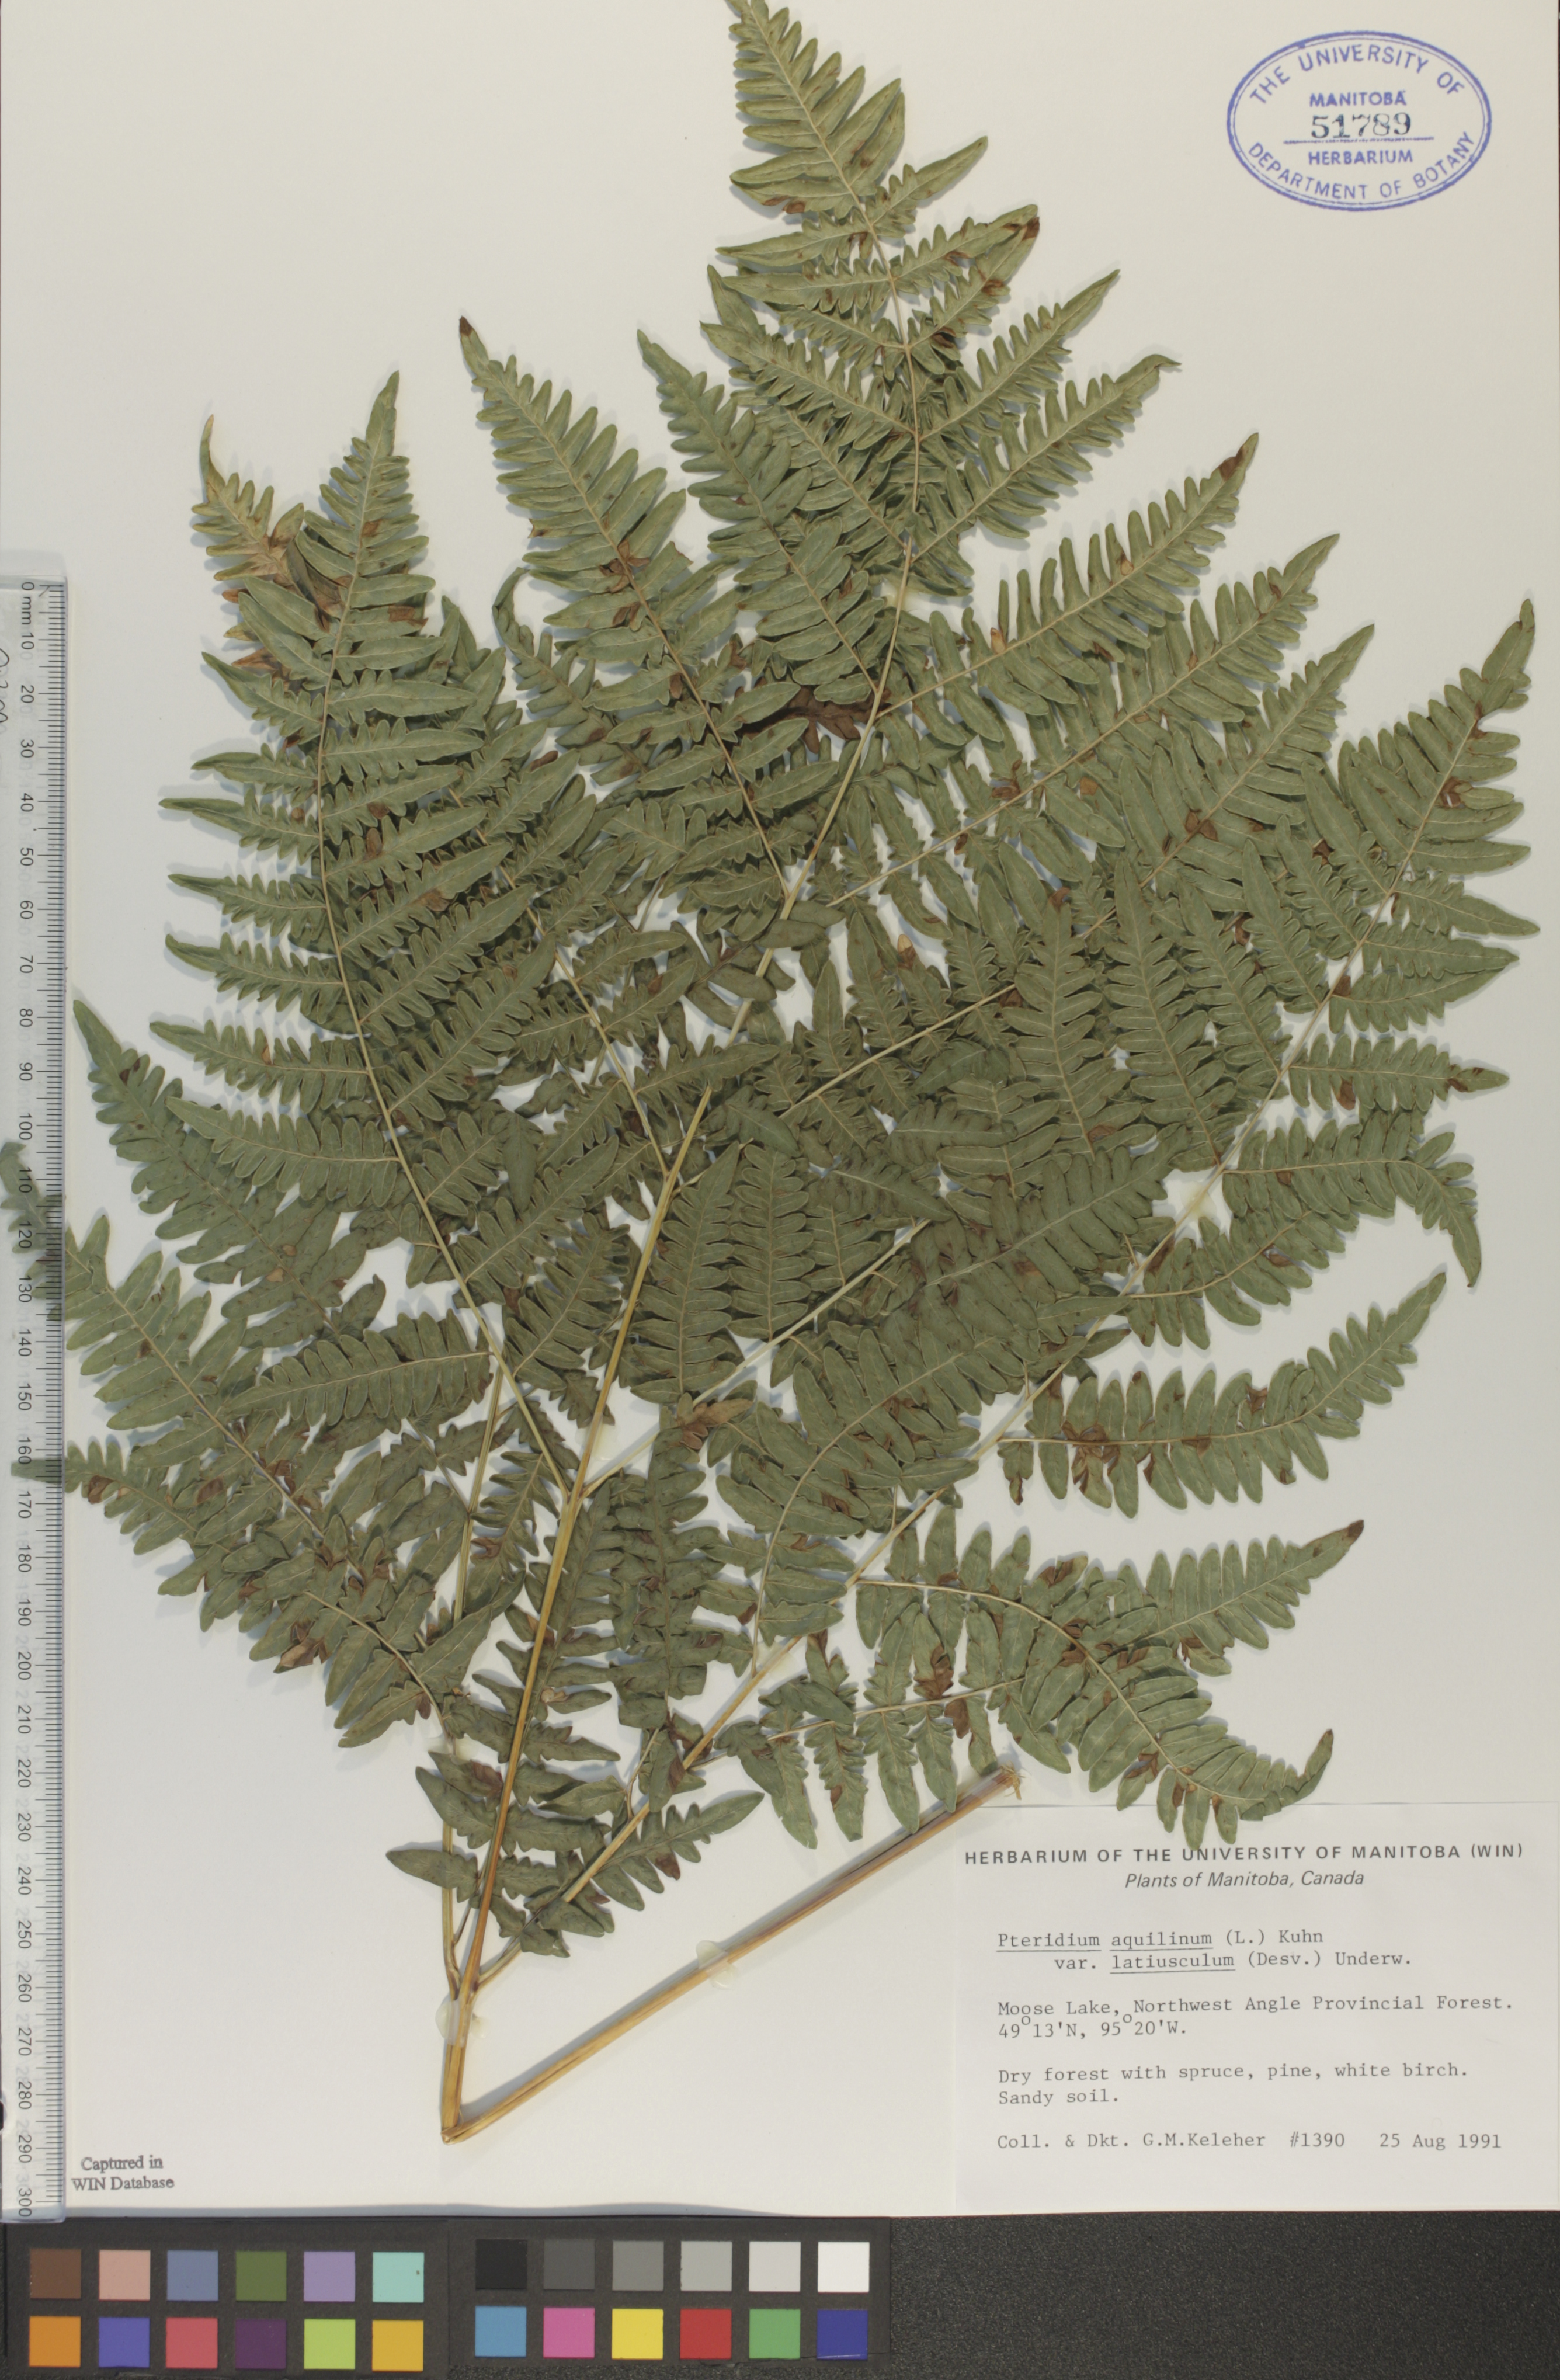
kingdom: Plantae
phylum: Tracheophyta
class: Polypodiopsida
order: Polypodiales
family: Dennstaedtiaceae
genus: Pteridium
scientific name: Pteridium aquilinum
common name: Bracken
